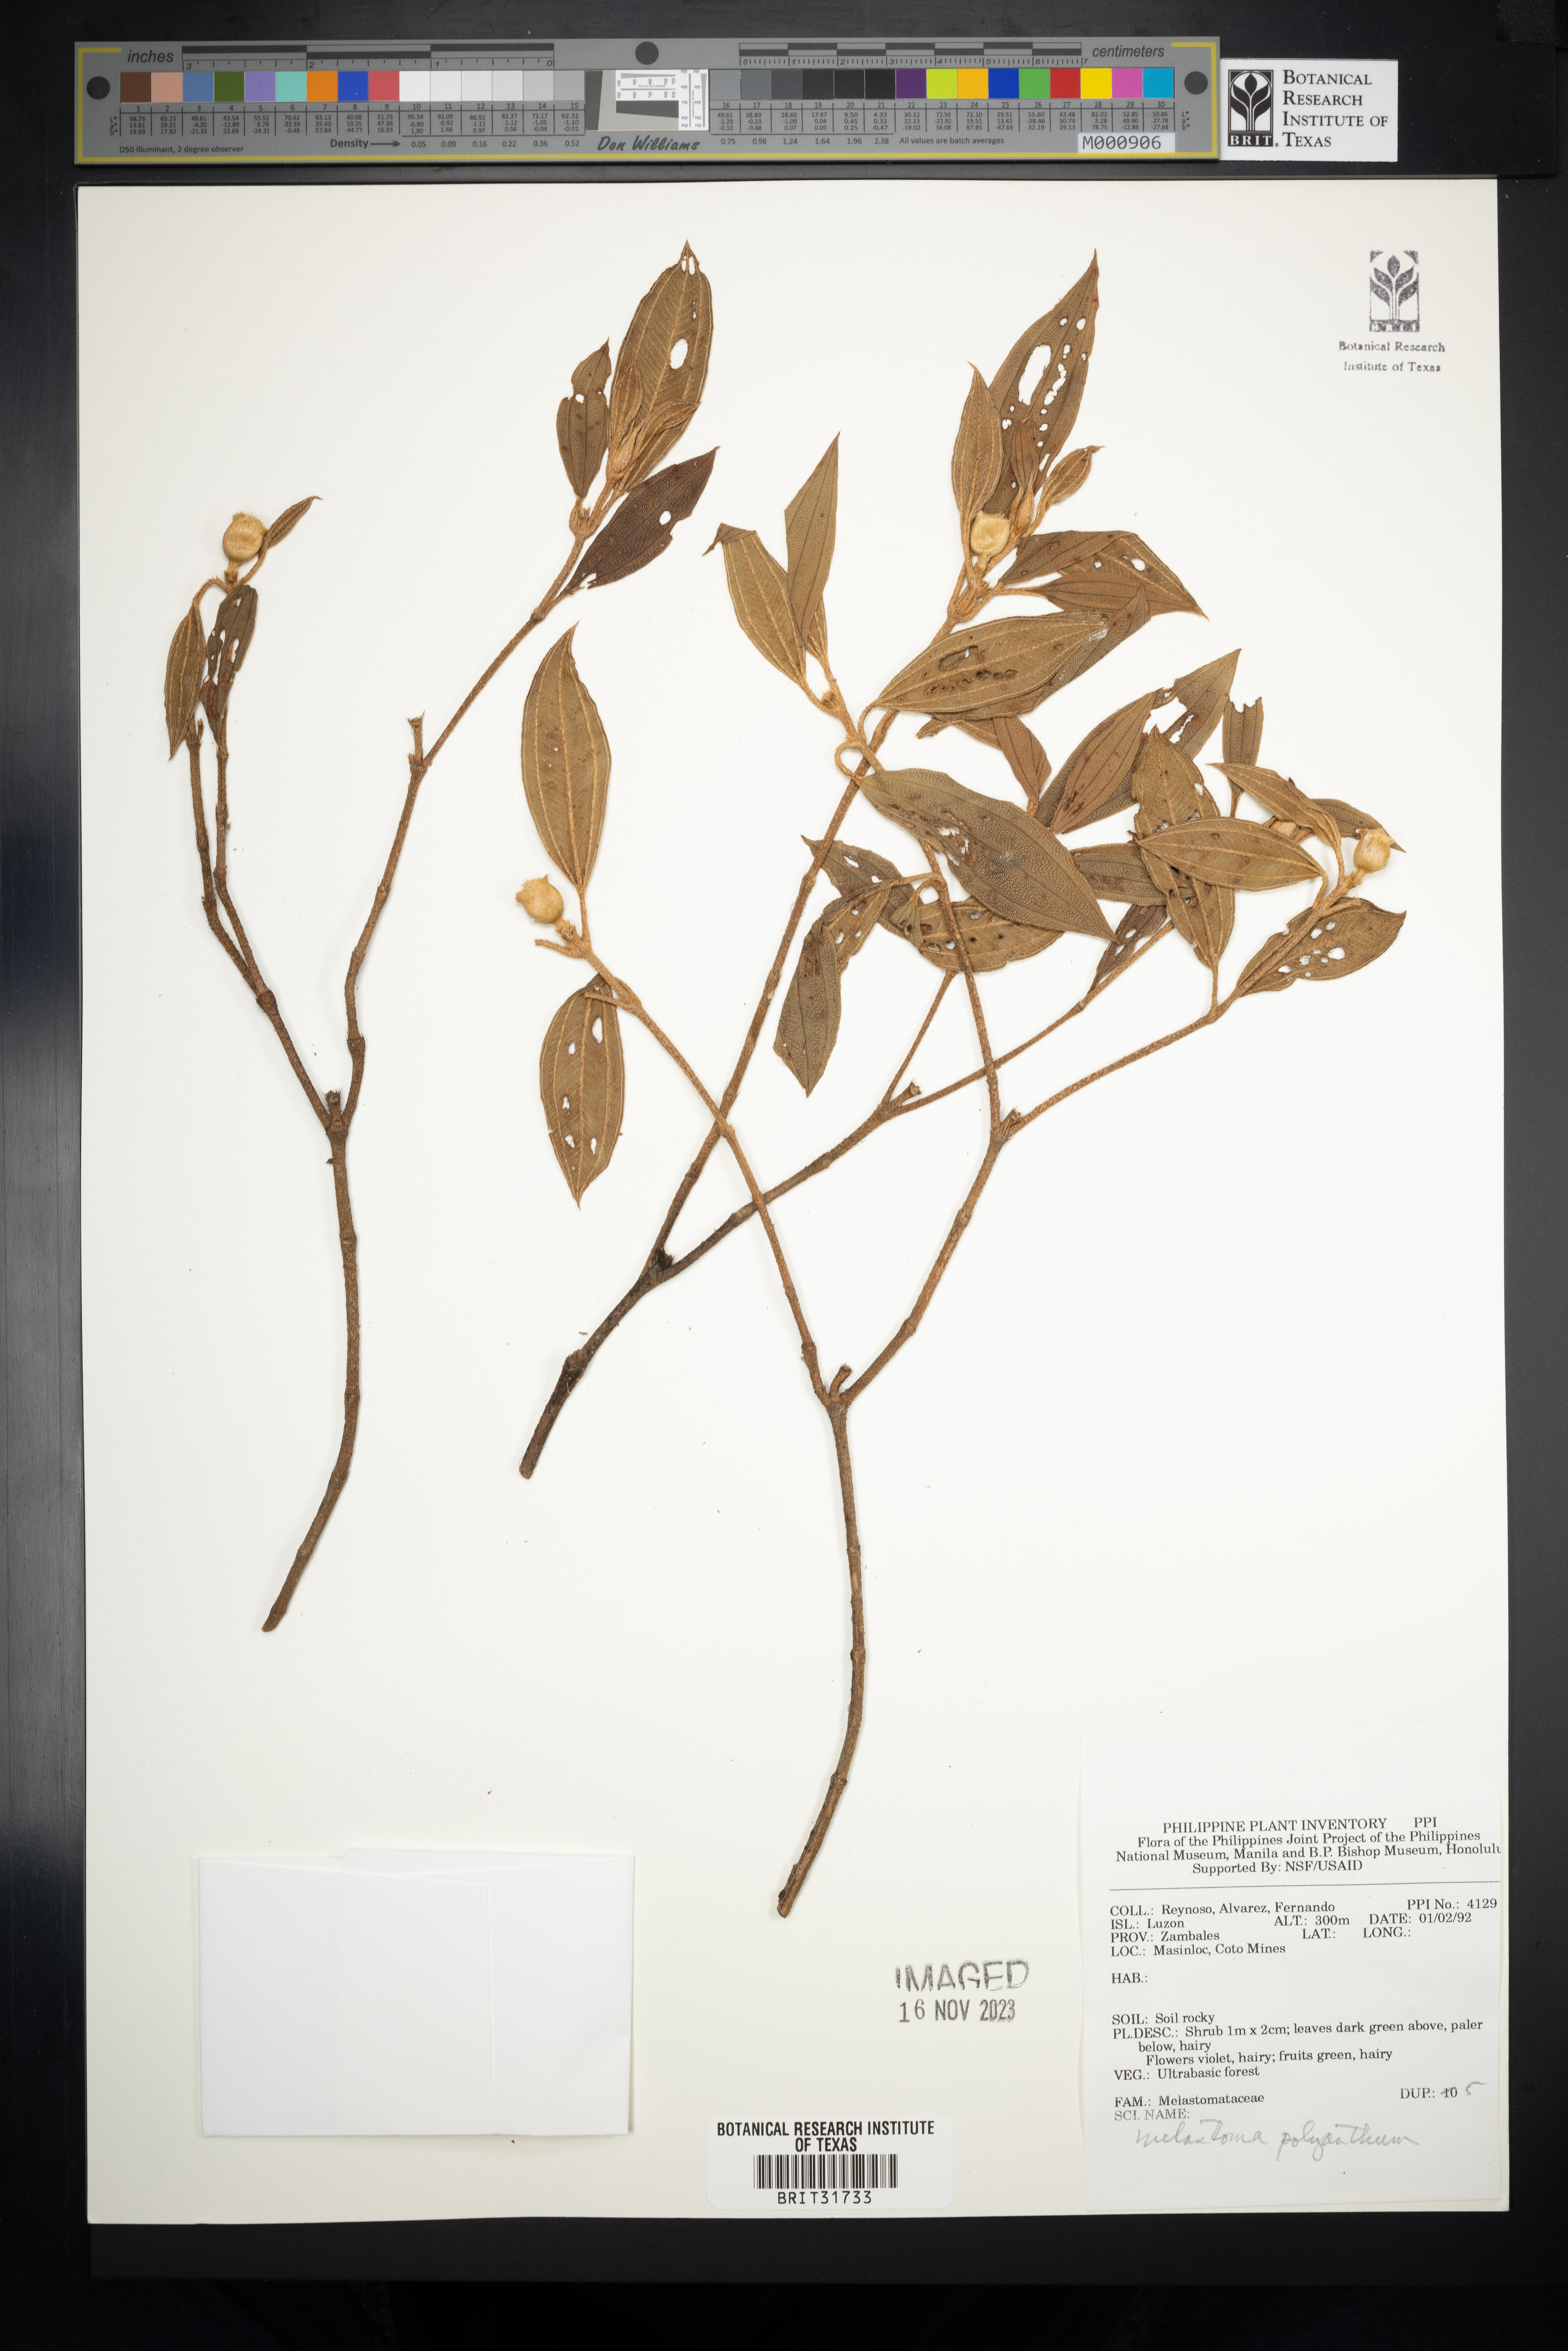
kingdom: Plantae
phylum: Tracheophyta
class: Magnoliopsida
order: Myrtales
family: Melastomataceae
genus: Melastoma
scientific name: Melastoma malabathricum
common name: Indian-rhododendron
